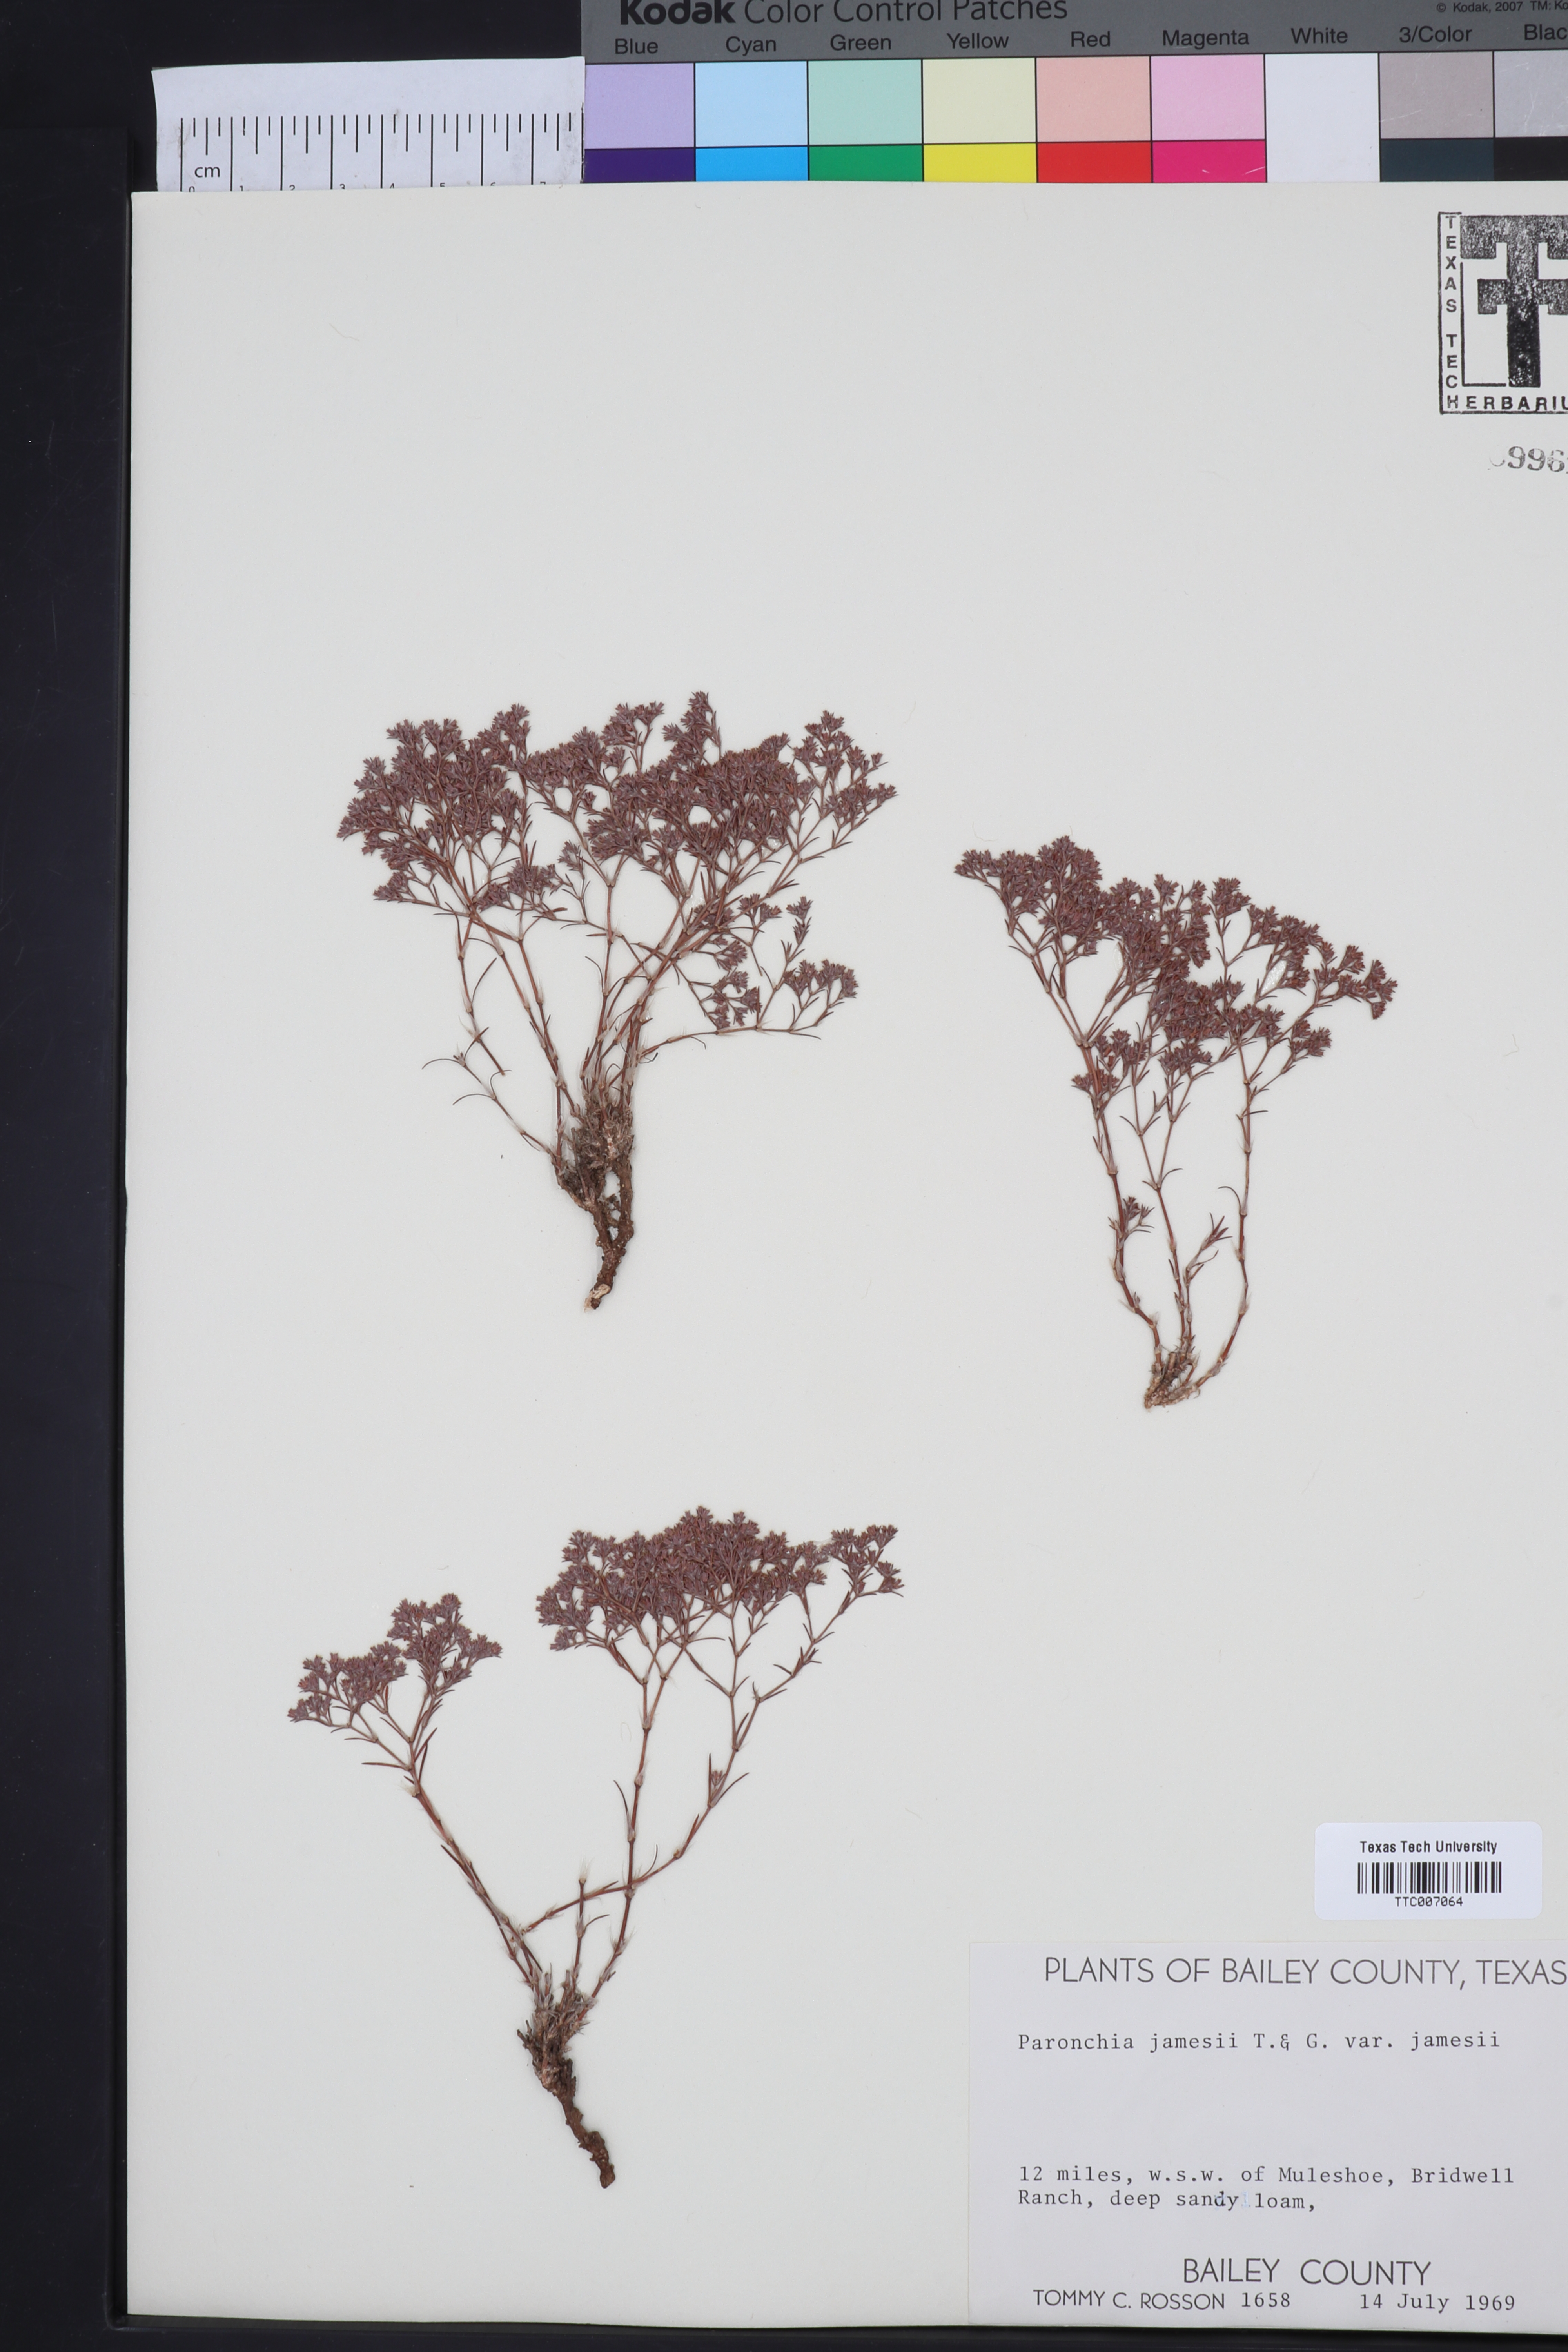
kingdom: Plantae
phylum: Tracheophyta
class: Magnoliopsida
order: Caryophyllales
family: Caryophyllaceae
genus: Paronychia
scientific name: Paronychia jamesii
